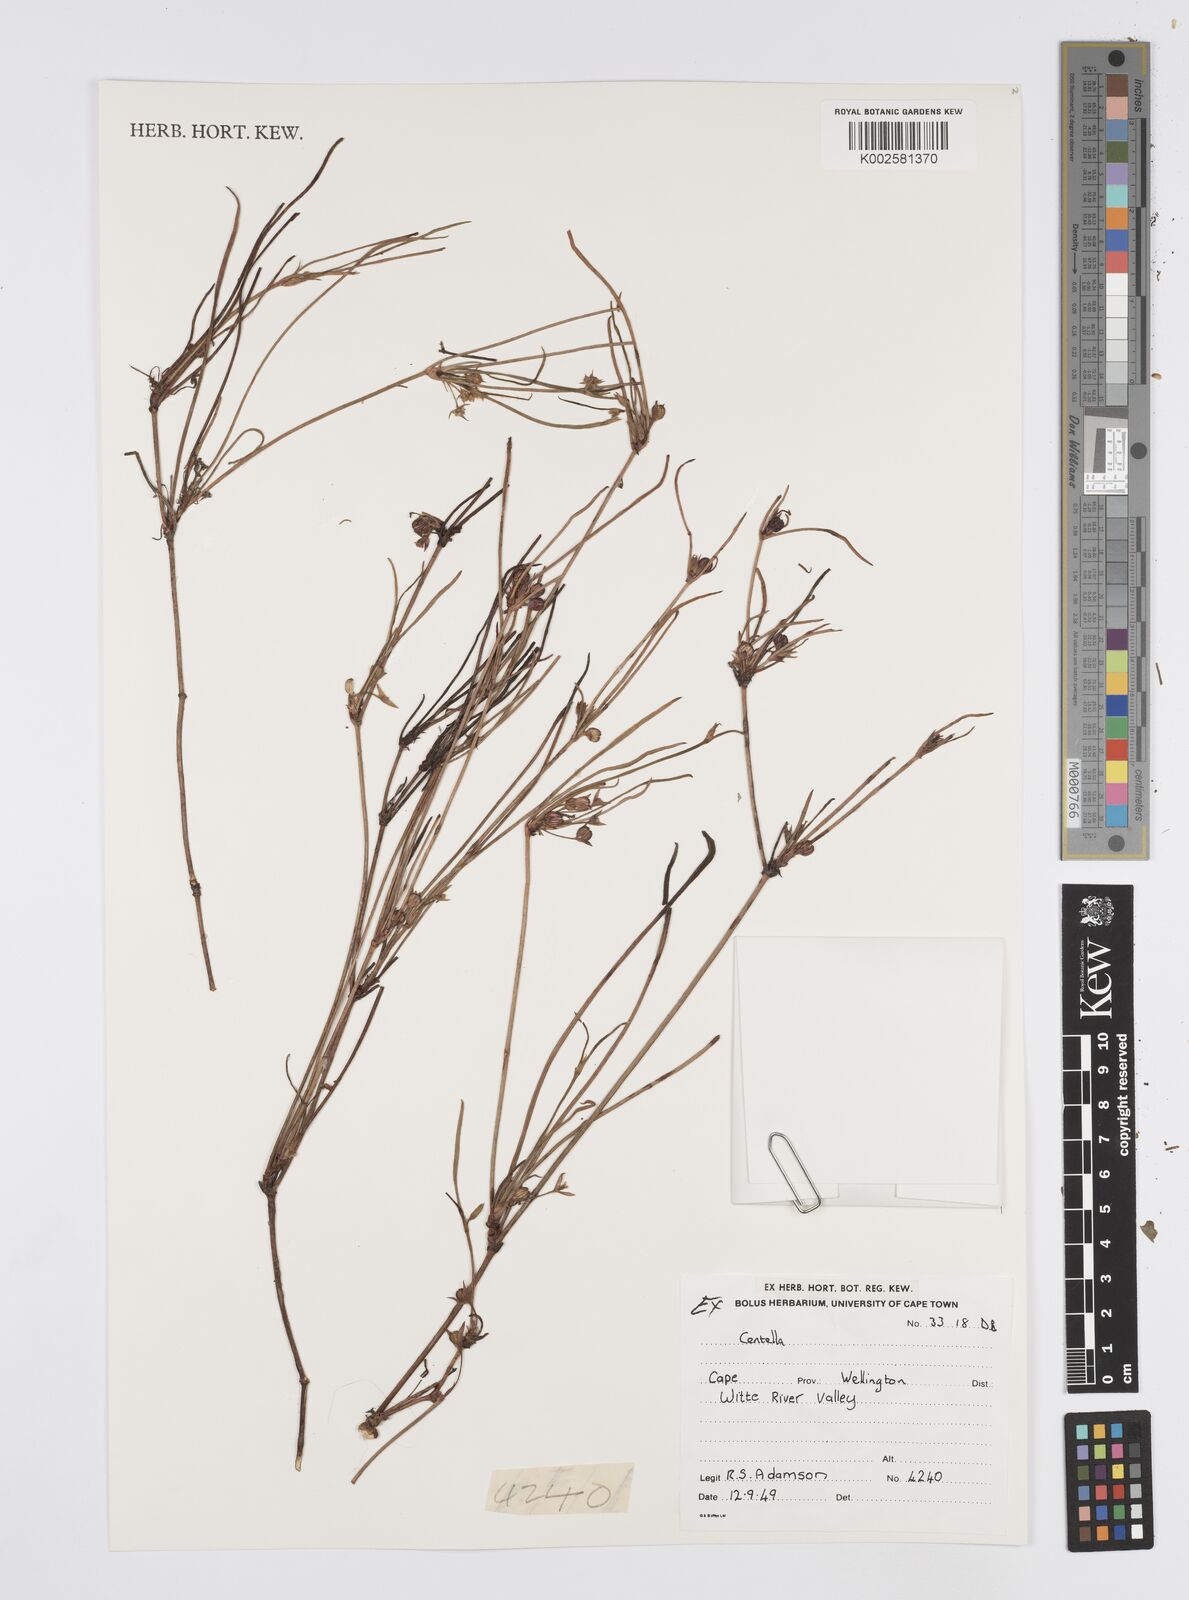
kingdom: Plantae
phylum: Tracheophyta
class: Magnoliopsida
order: Apiales
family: Apiaceae
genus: Centella
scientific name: Centella
